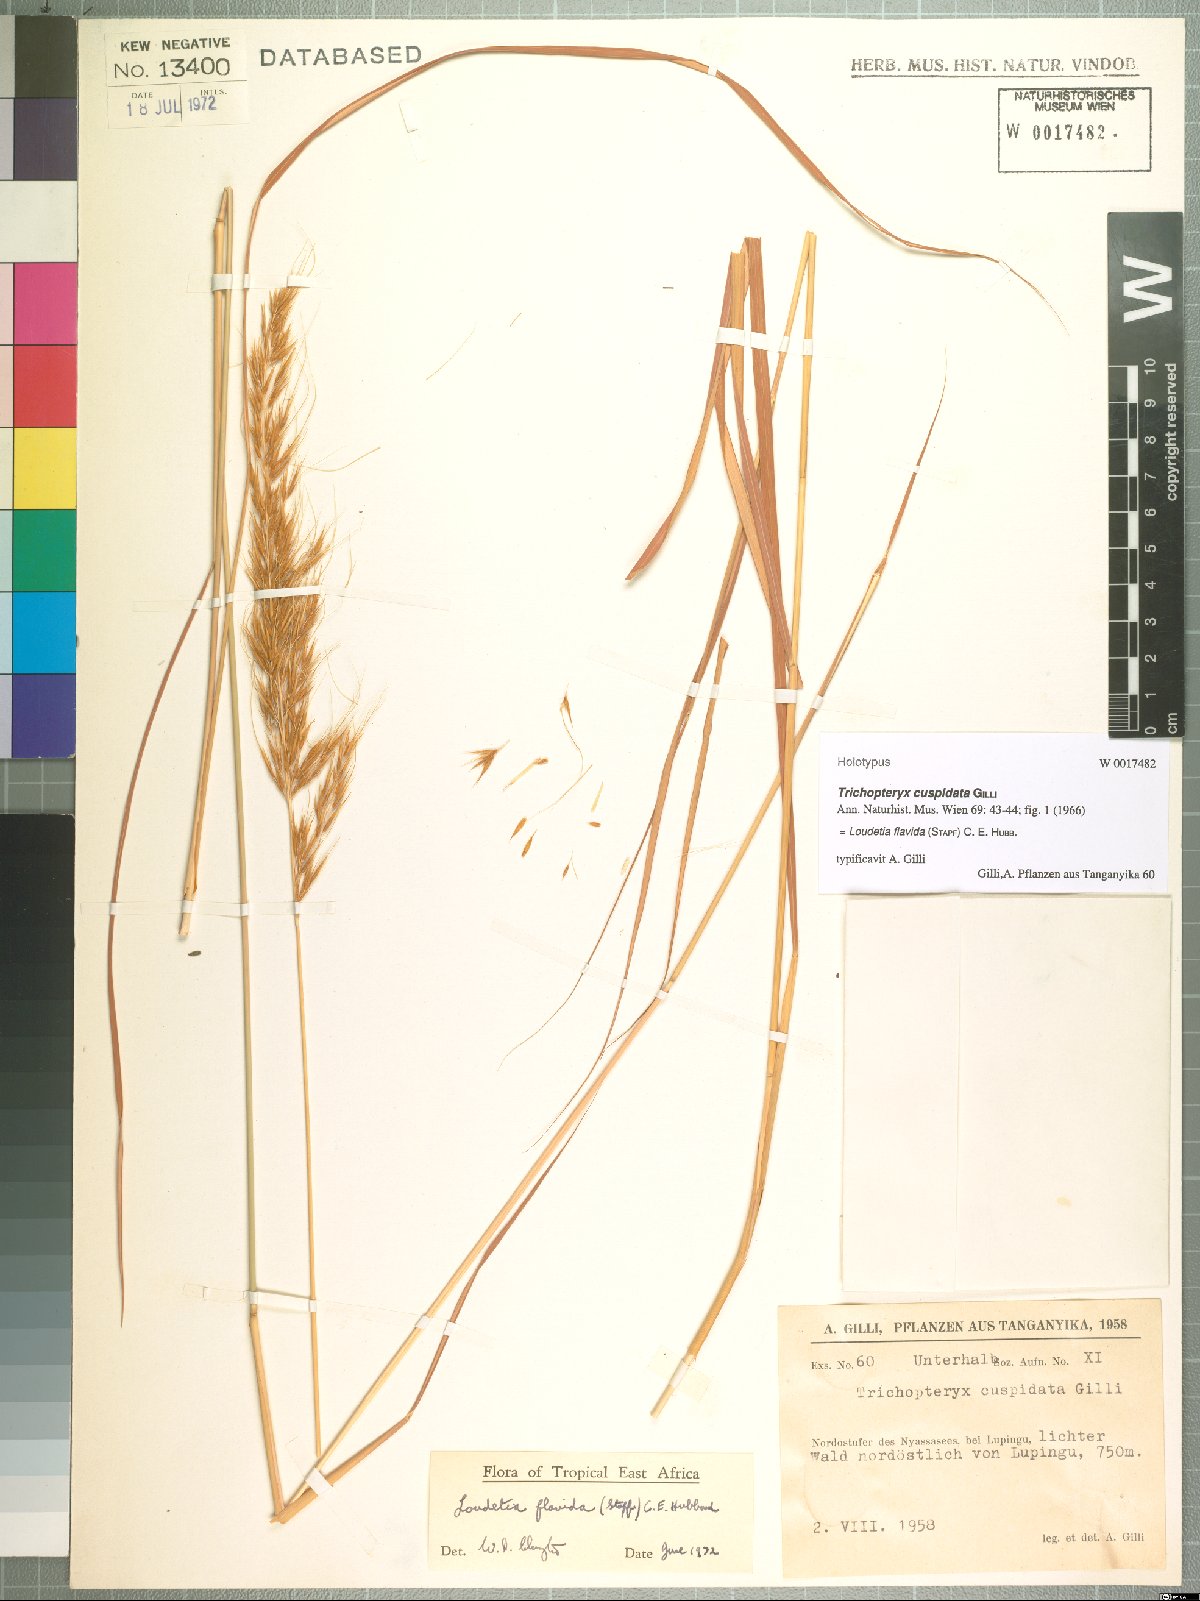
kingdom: Plantae
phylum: Tracheophyta
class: Liliopsida
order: Poales
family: Poaceae
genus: Loudetia
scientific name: Loudetia flavida
